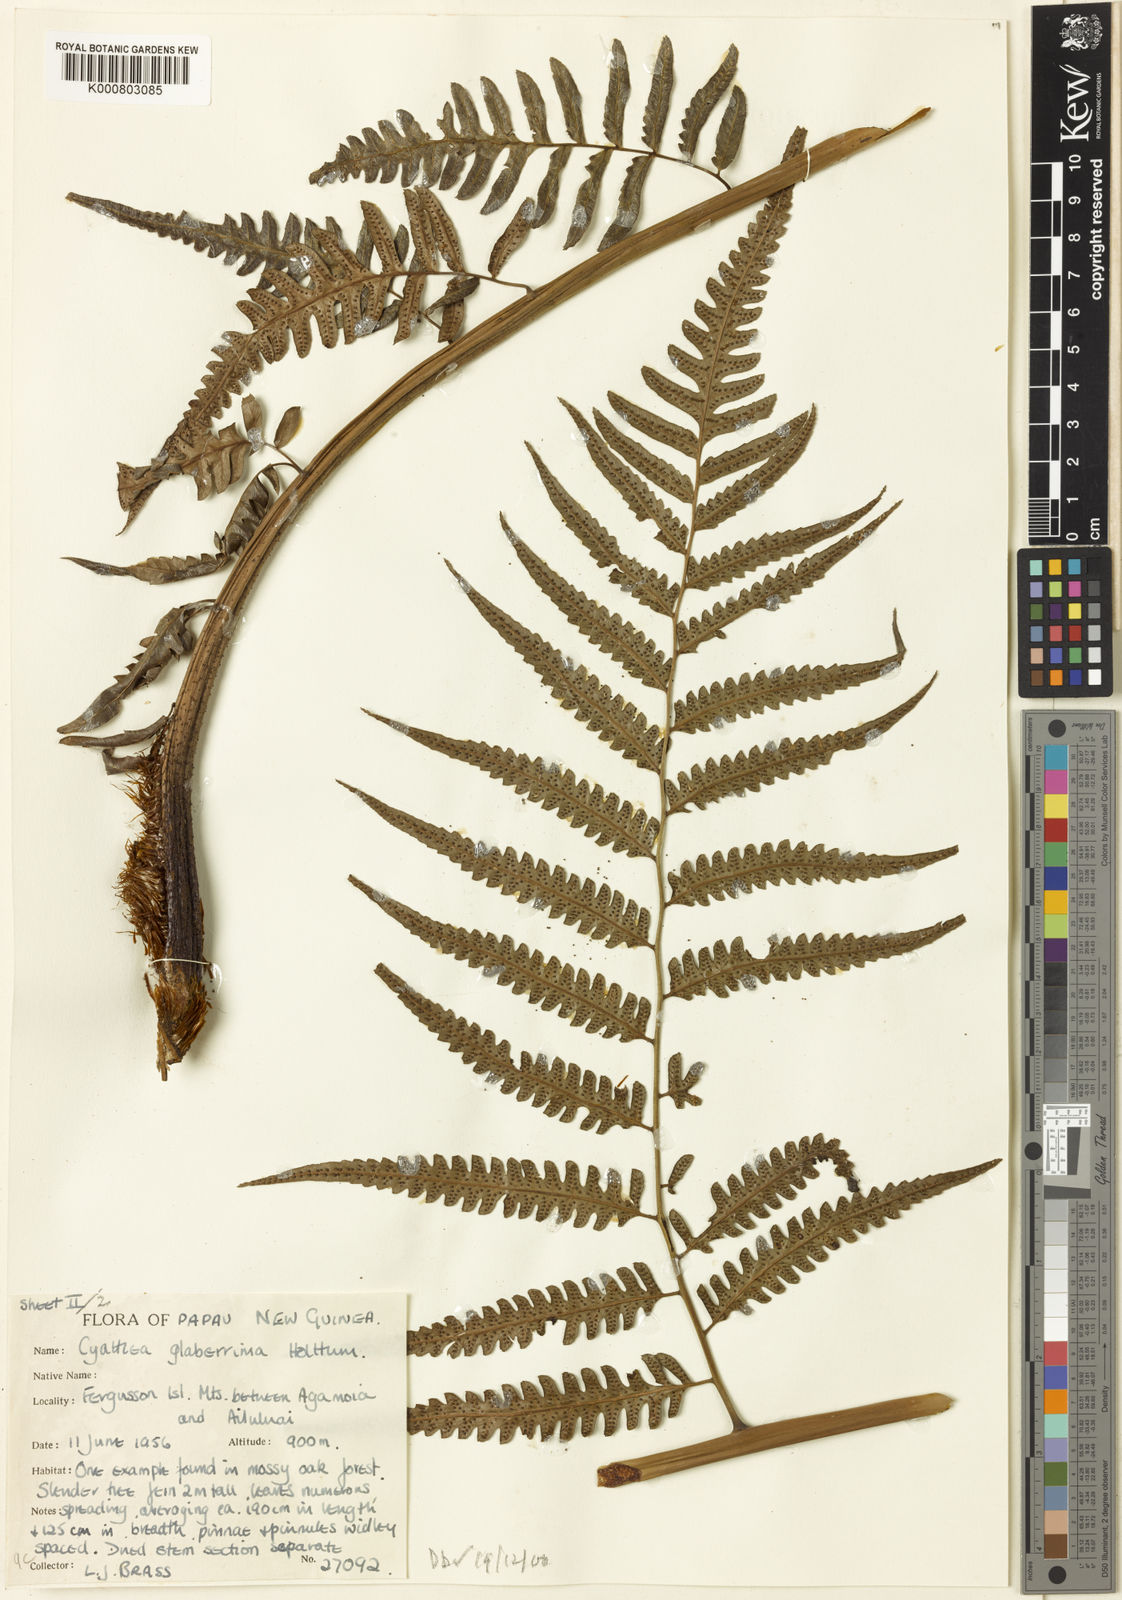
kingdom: Plantae
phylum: Tracheophyta
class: Polypodiopsida
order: Cyatheales
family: Cyatheaceae
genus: Alsophila
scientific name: Alsophila glaberrima
